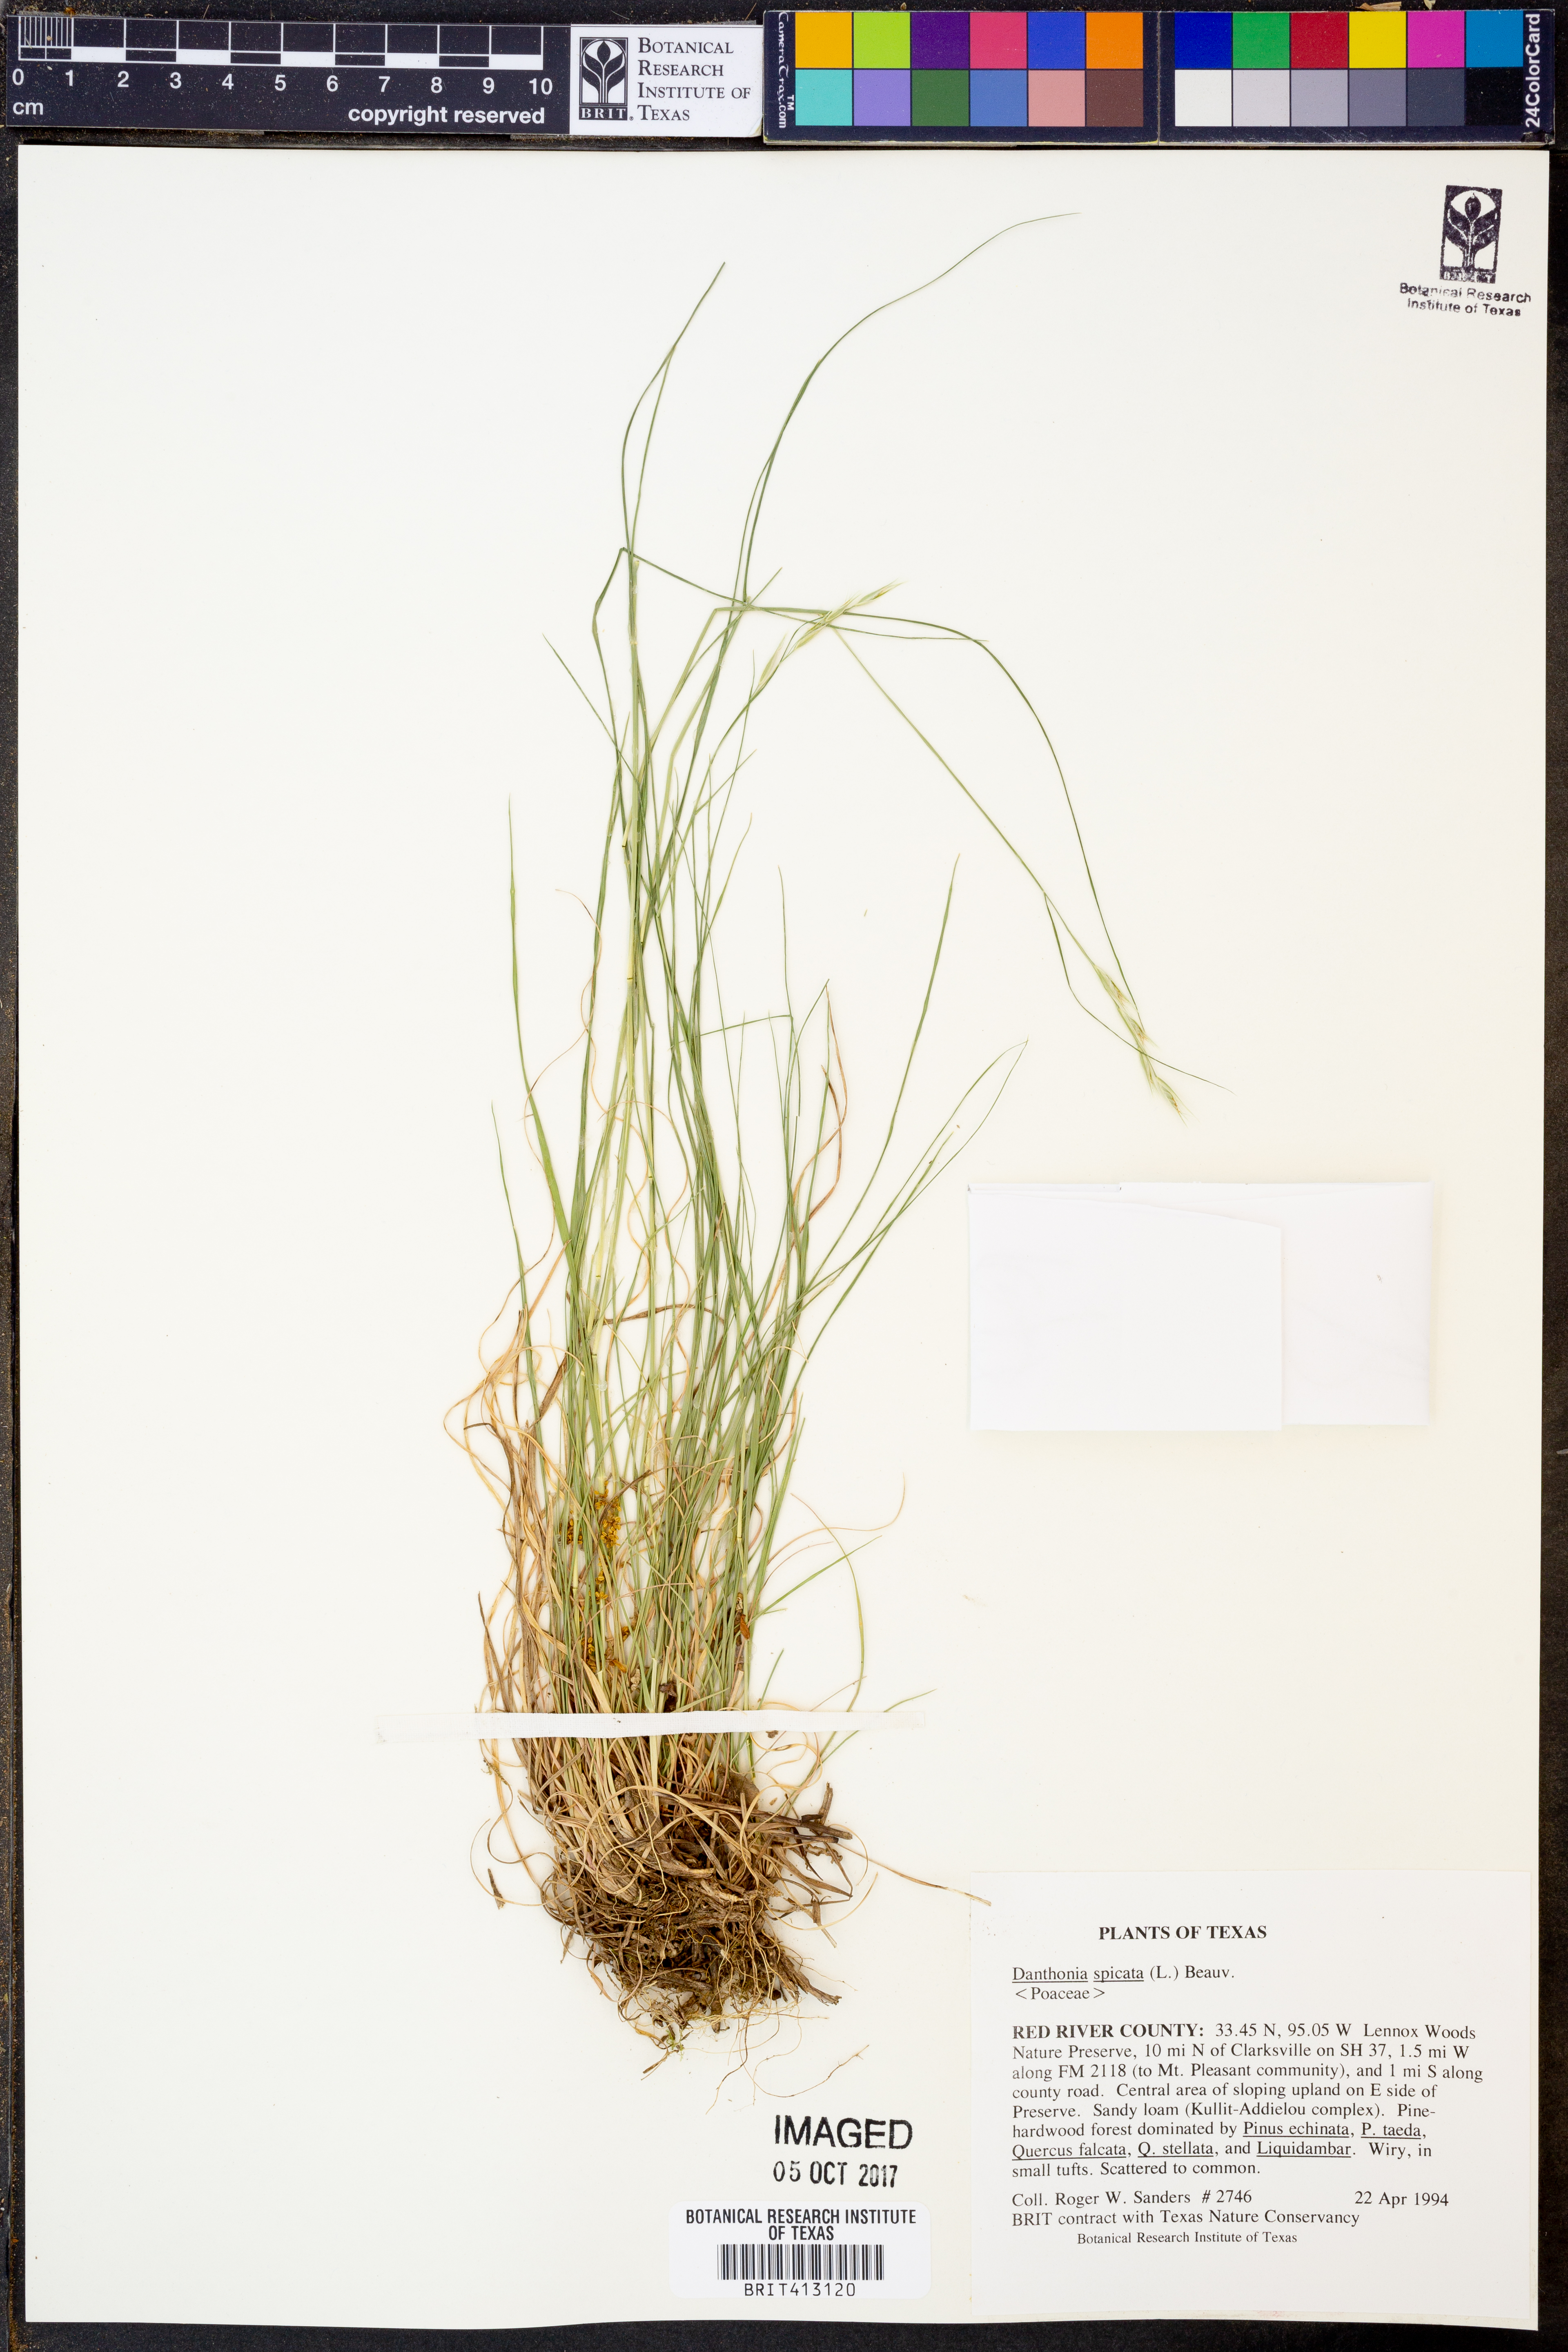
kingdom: Plantae
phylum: Tracheophyta
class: Liliopsida
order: Poales
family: Poaceae
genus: Danthonia
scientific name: Danthonia spicata
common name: Common wild oatgrass
